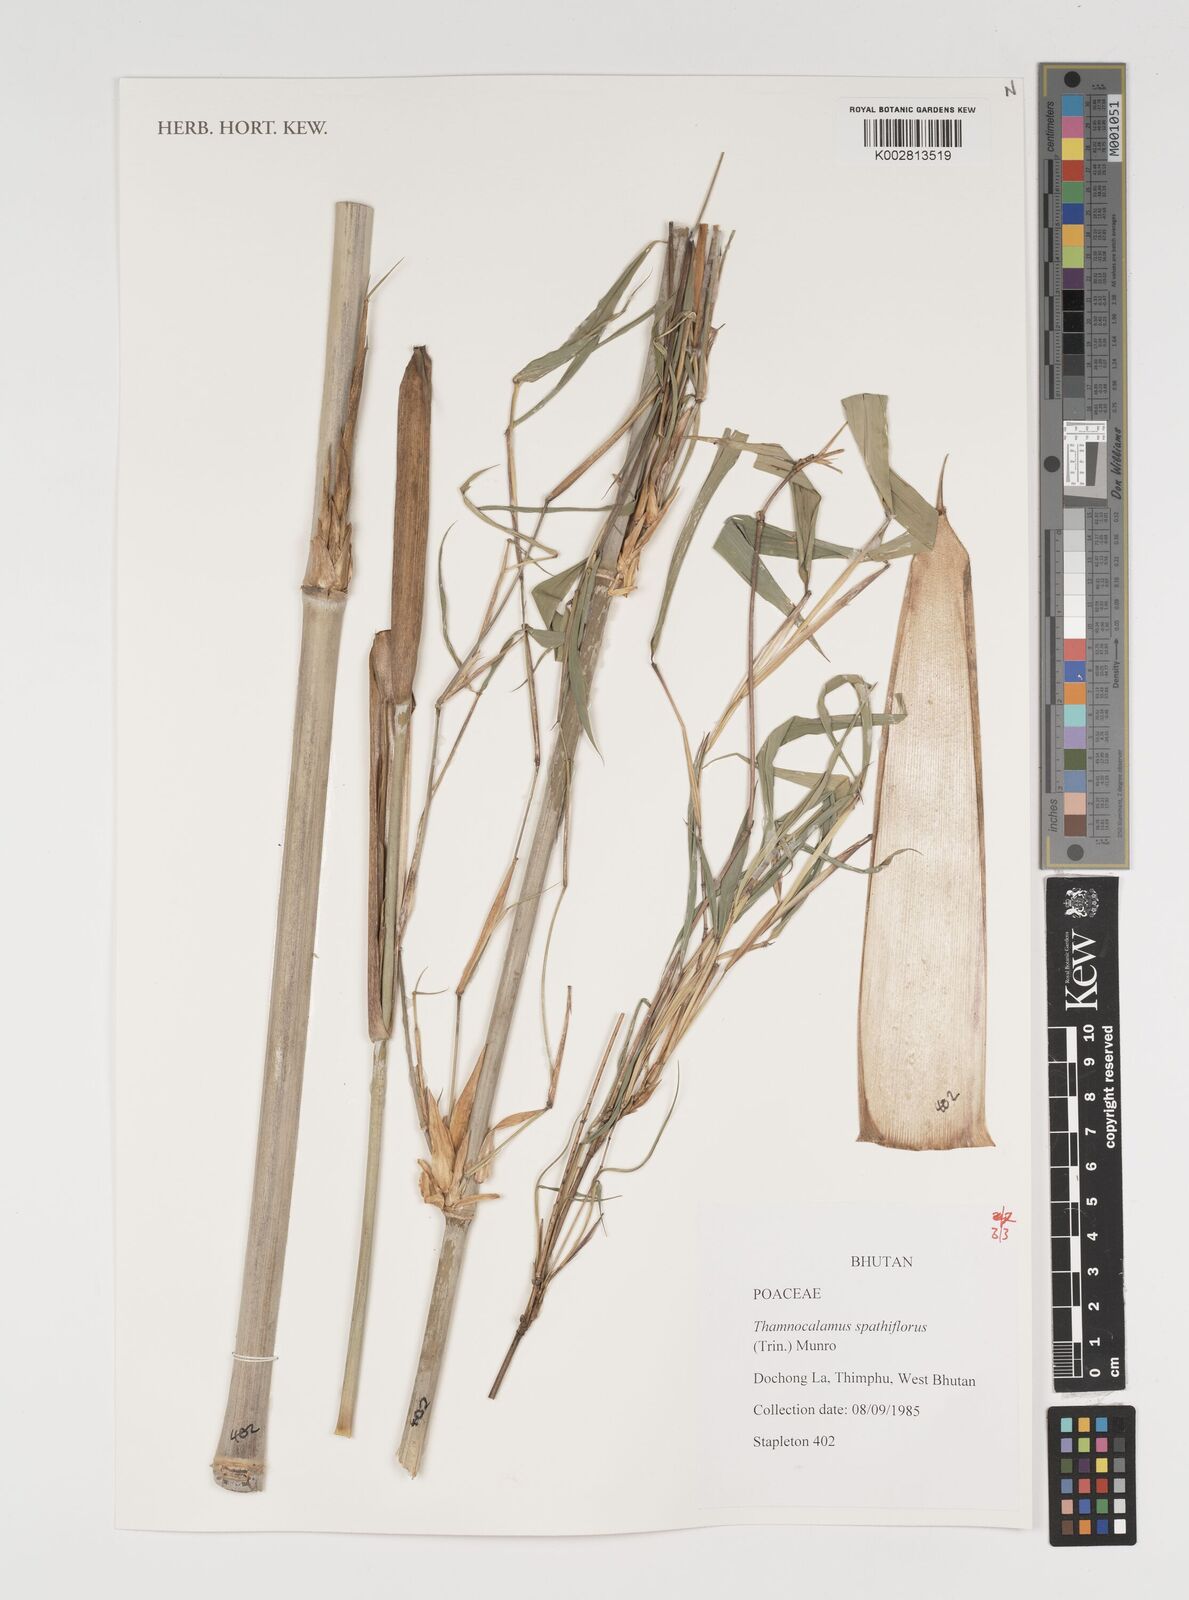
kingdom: Plantae
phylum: Tracheophyta
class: Liliopsida
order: Poales
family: Poaceae
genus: Thamnocalamus
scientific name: Thamnocalamus spathiflorus
